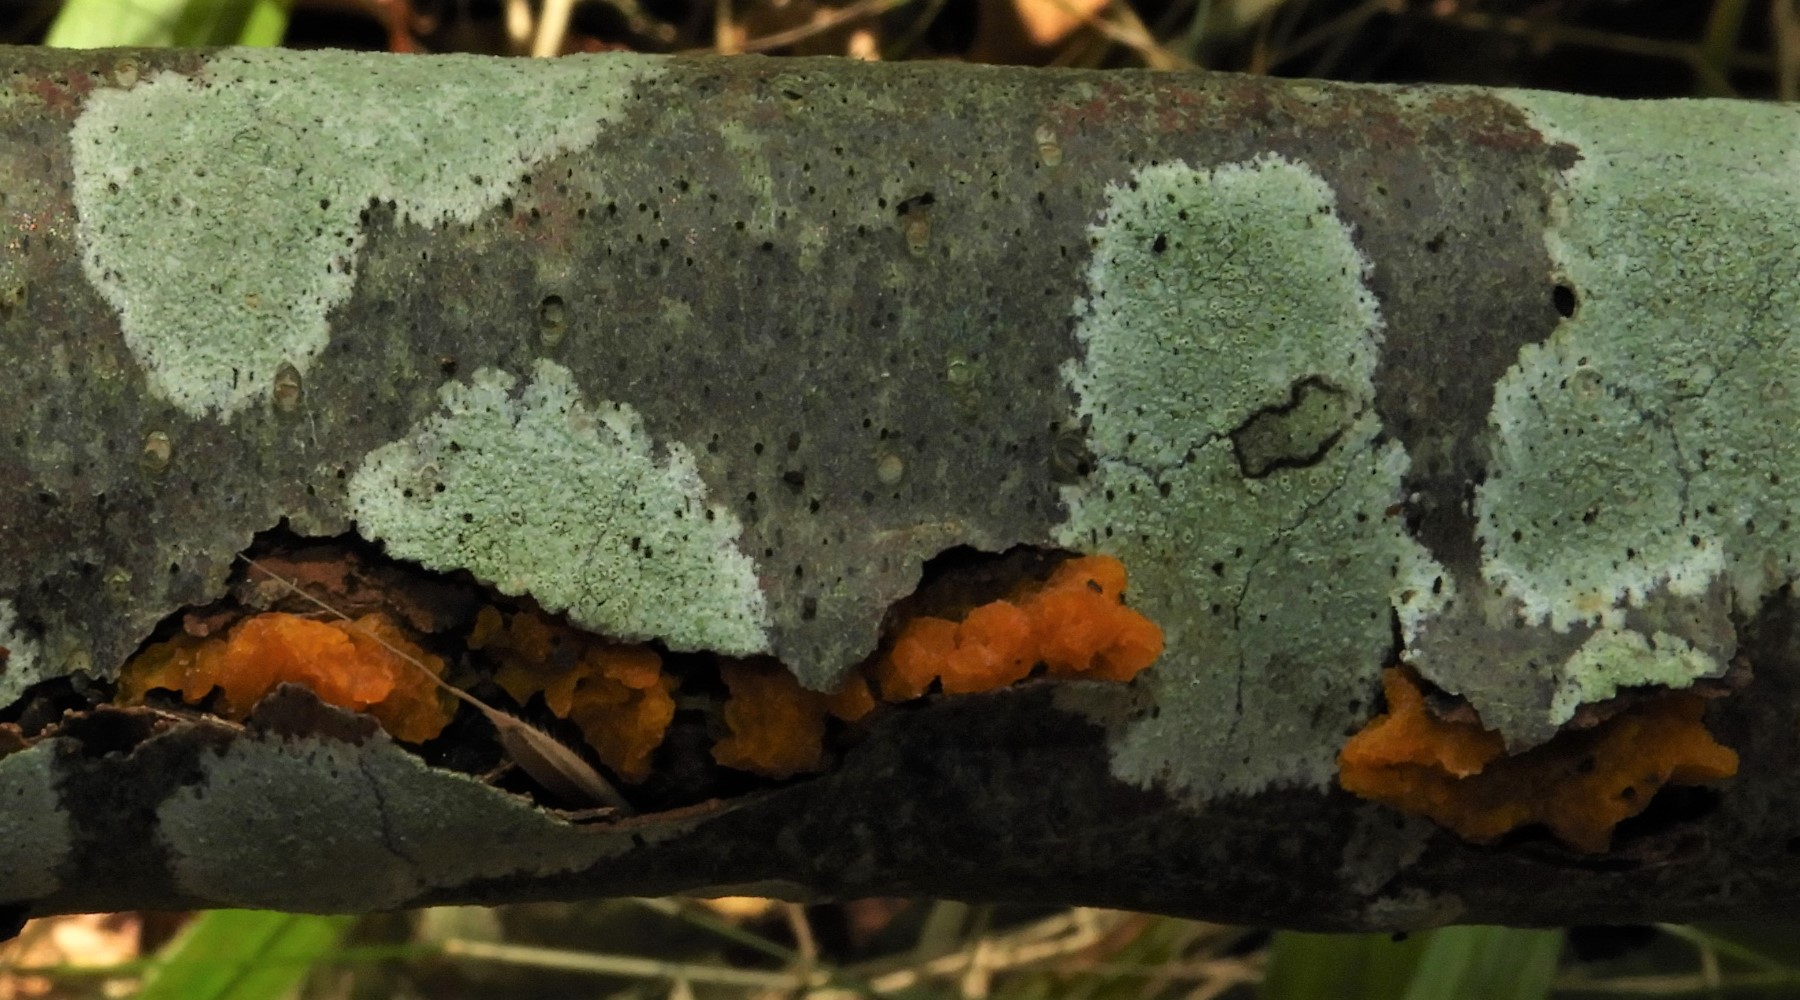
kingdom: Fungi
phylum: Ascomycota
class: Lecanoromycetes
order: Lecanorales
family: Lecanoraceae
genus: Lecanora
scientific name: Lecanora
